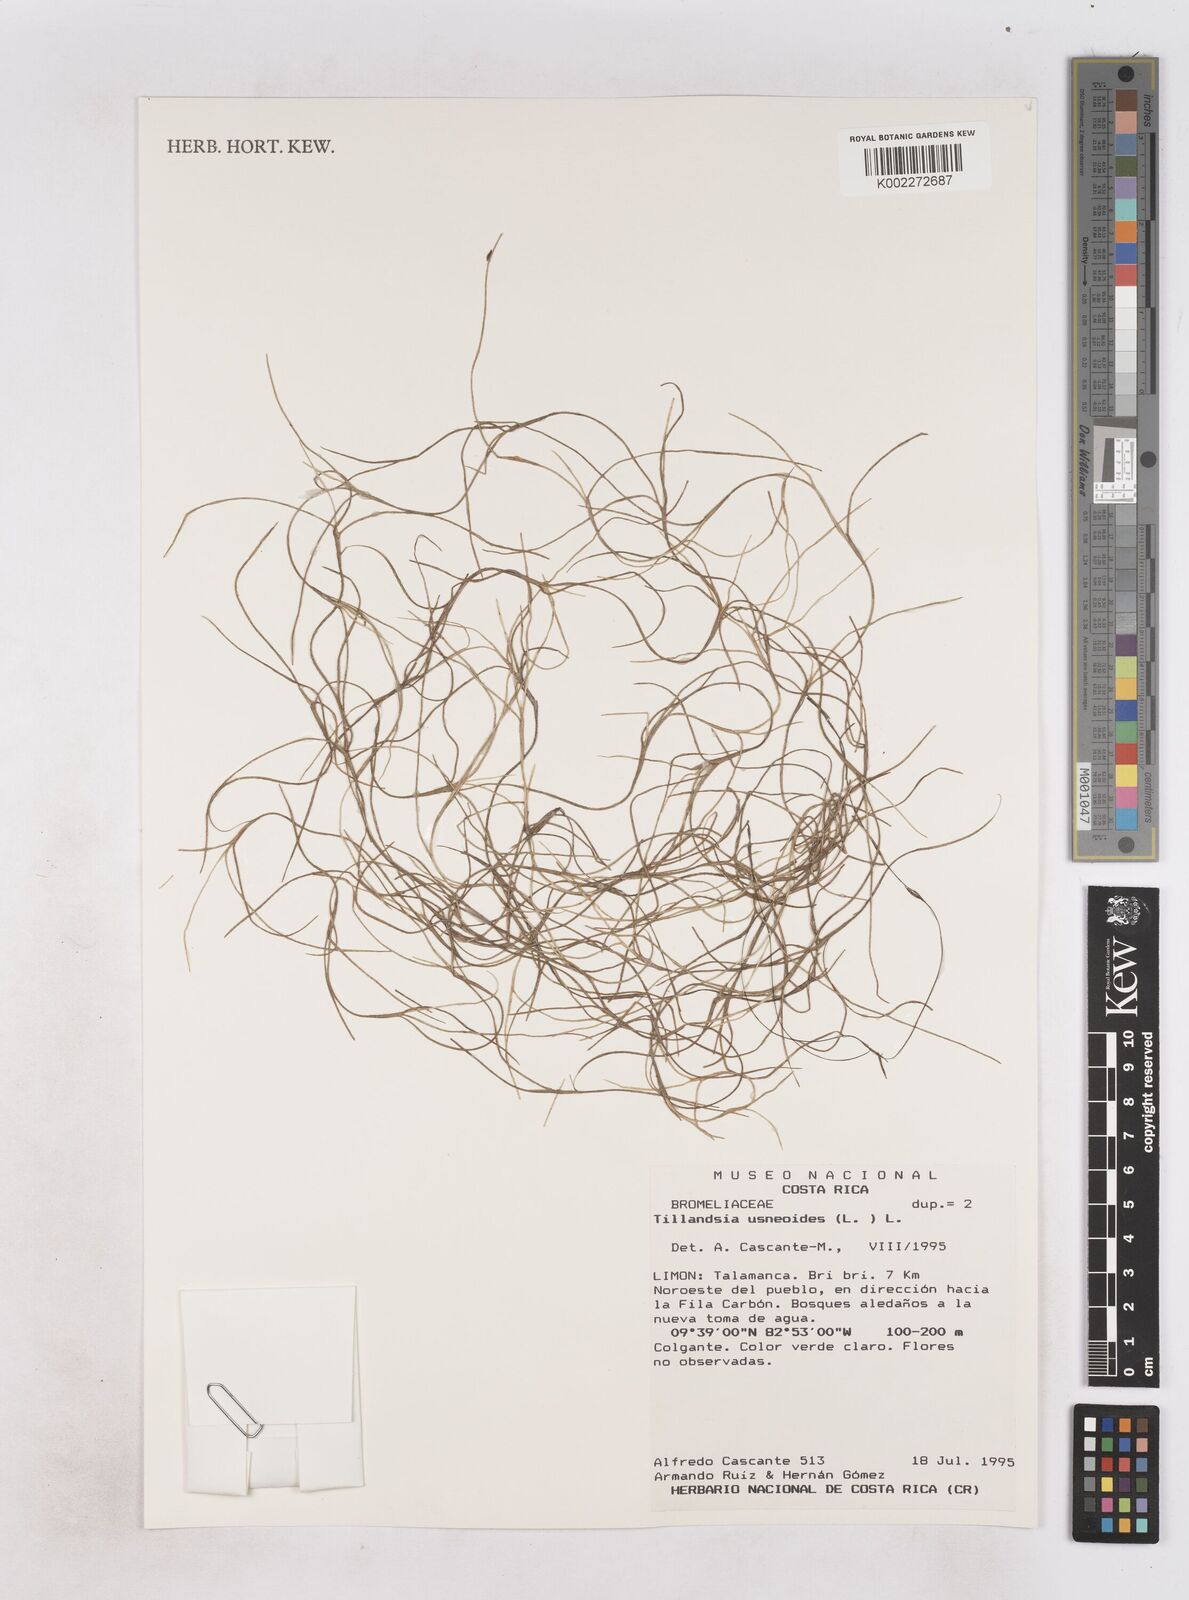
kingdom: Plantae
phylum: Tracheophyta
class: Liliopsida
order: Poales
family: Bromeliaceae
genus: Tillandsia
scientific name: Tillandsia usneoides
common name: Spanish moss
